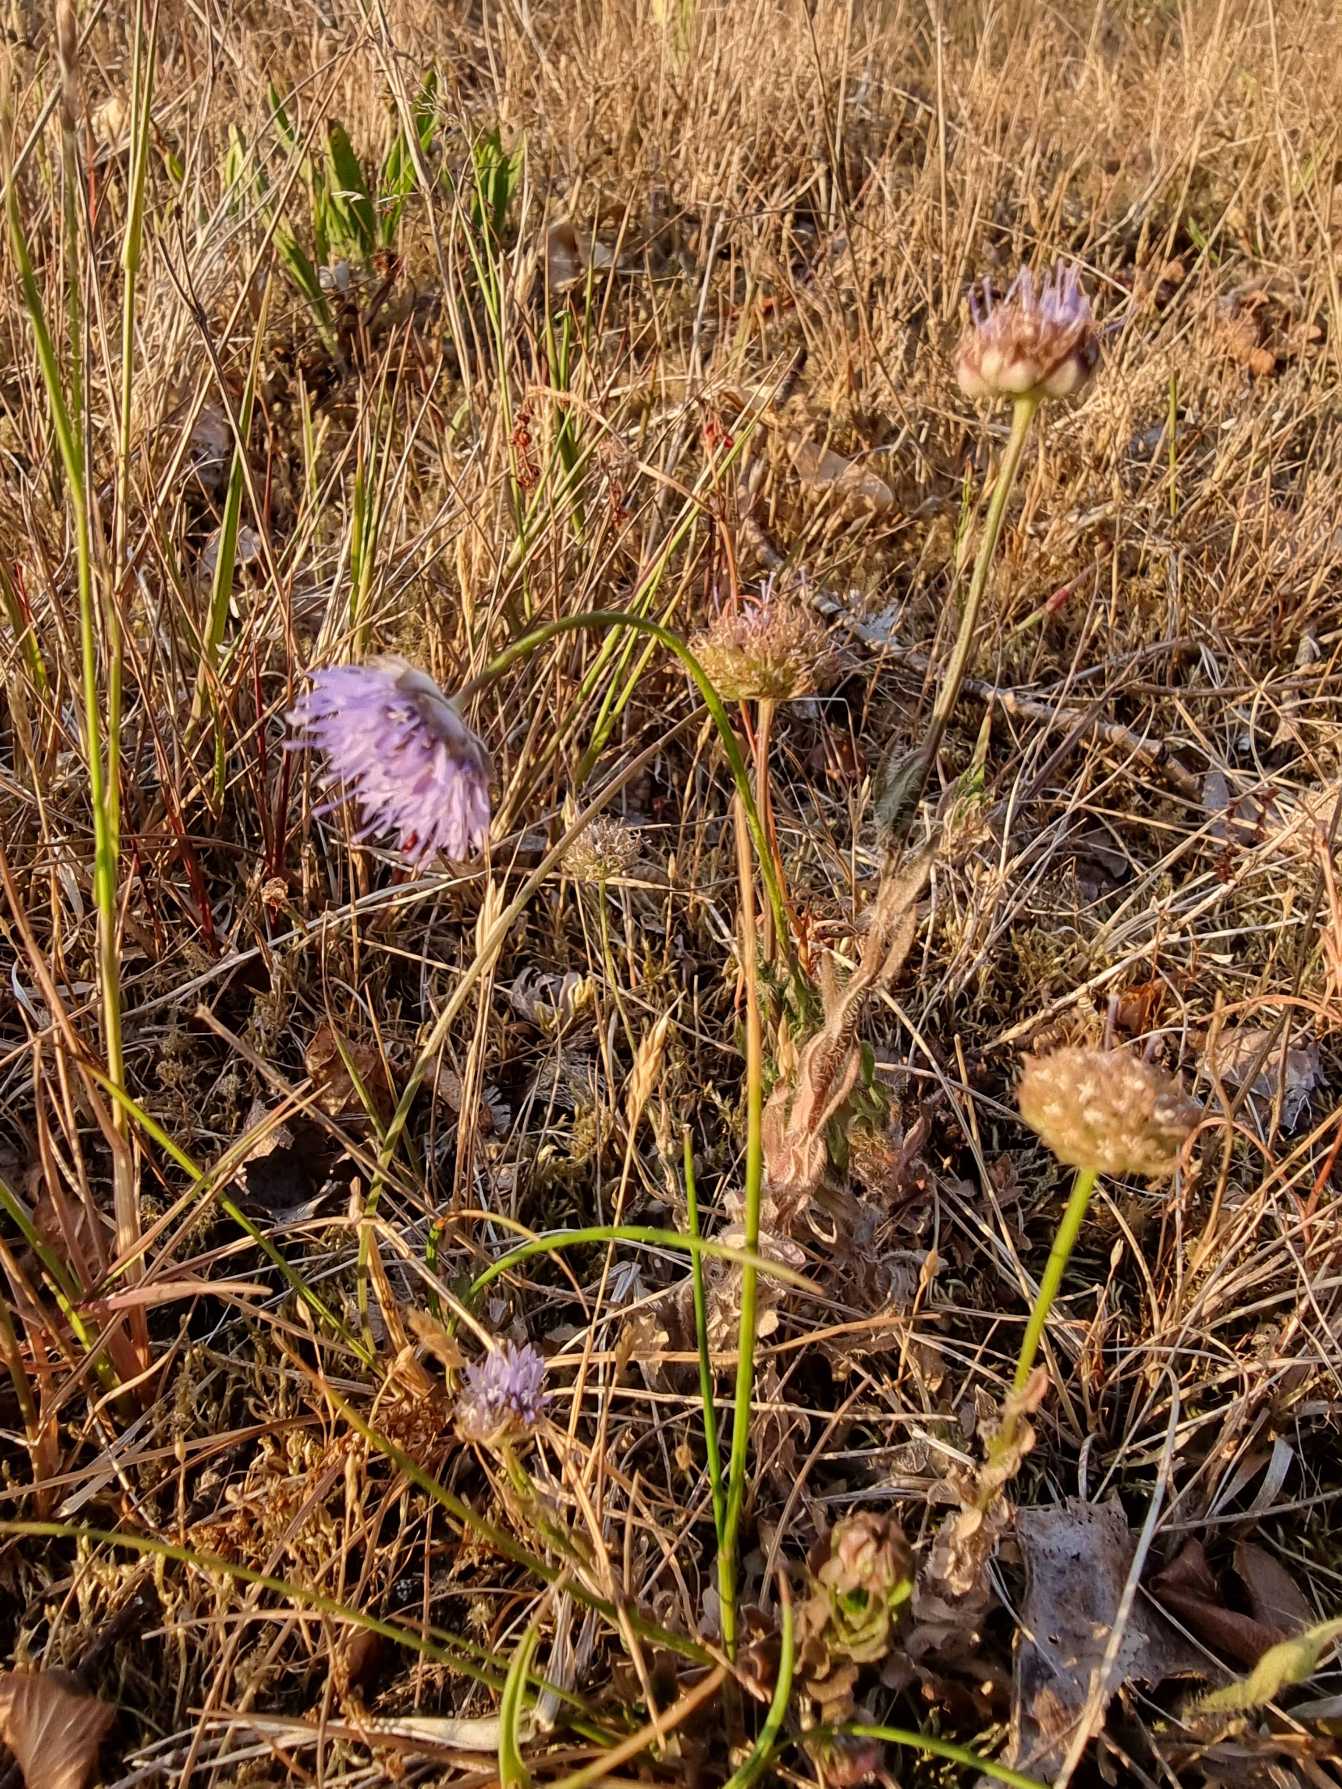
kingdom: Plantae
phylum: Tracheophyta
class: Magnoliopsida
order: Asterales
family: Campanulaceae
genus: Jasione
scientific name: Jasione montana
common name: Blåmunke
